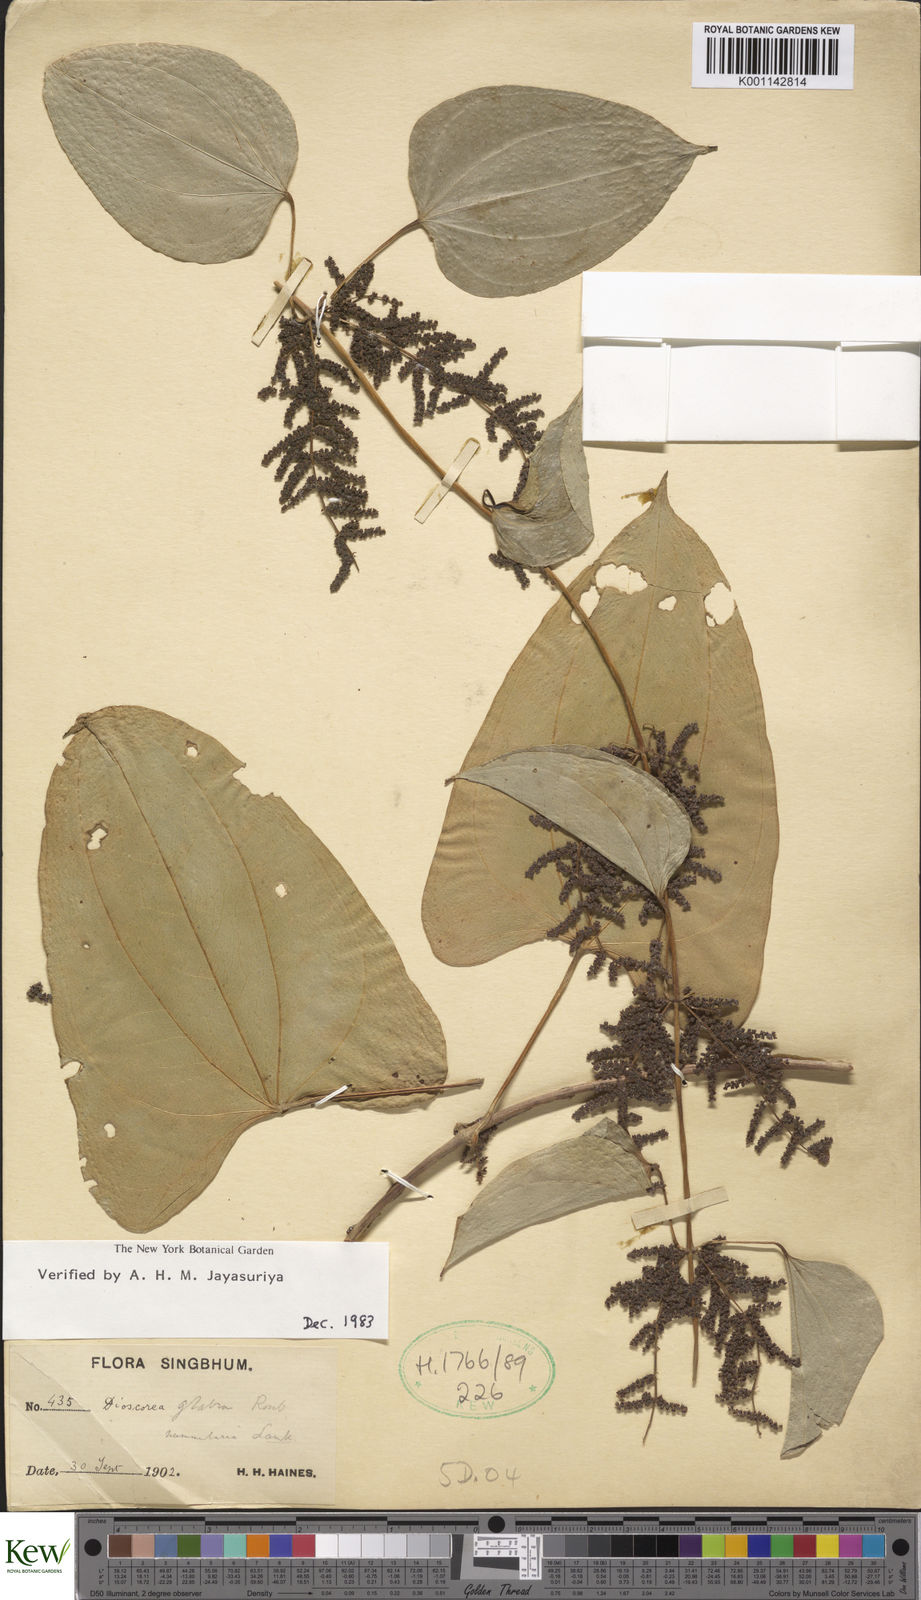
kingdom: Plantae
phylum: Tracheophyta
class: Liliopsida
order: Dioscoreales
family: Dioscoreaceae
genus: Dioscorea
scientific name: Dioscorea glabra
